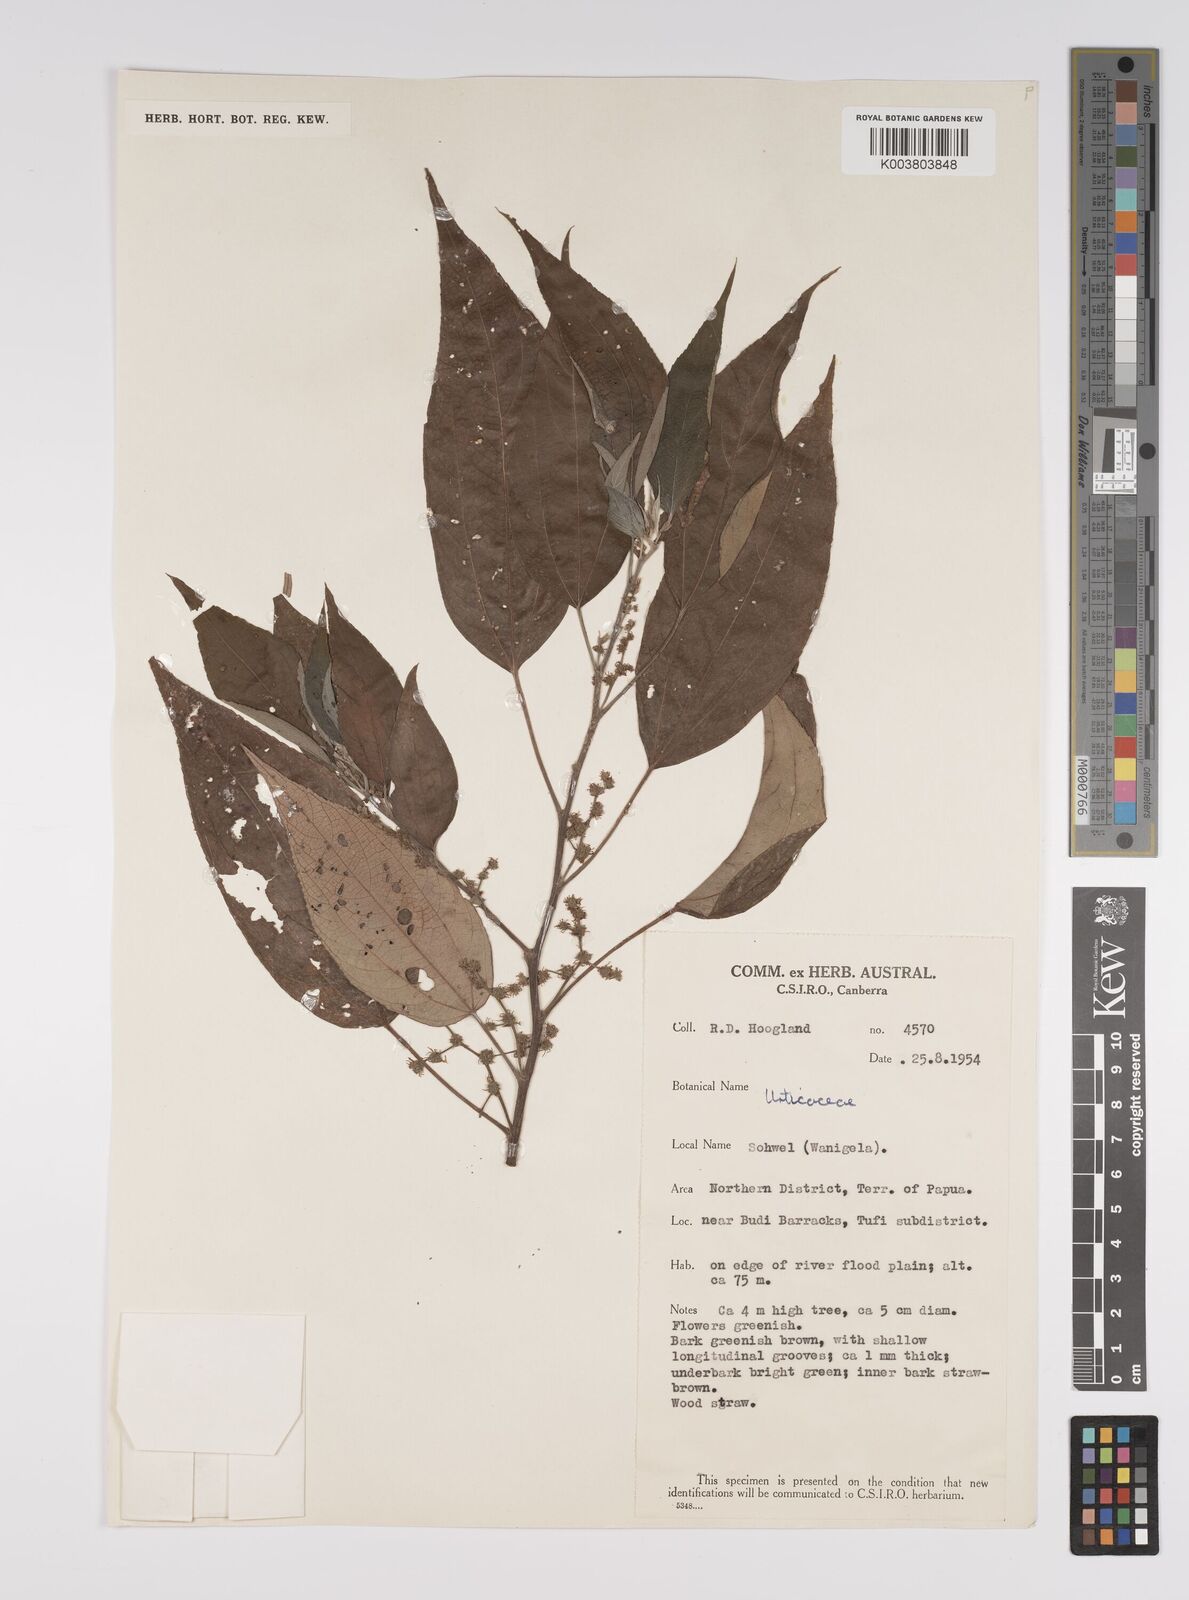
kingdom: Plantae
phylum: Tracheophyta
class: Magnoliopsida
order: Rosales
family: Urticaceae
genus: Pipturus
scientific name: Pipturus argenteus
